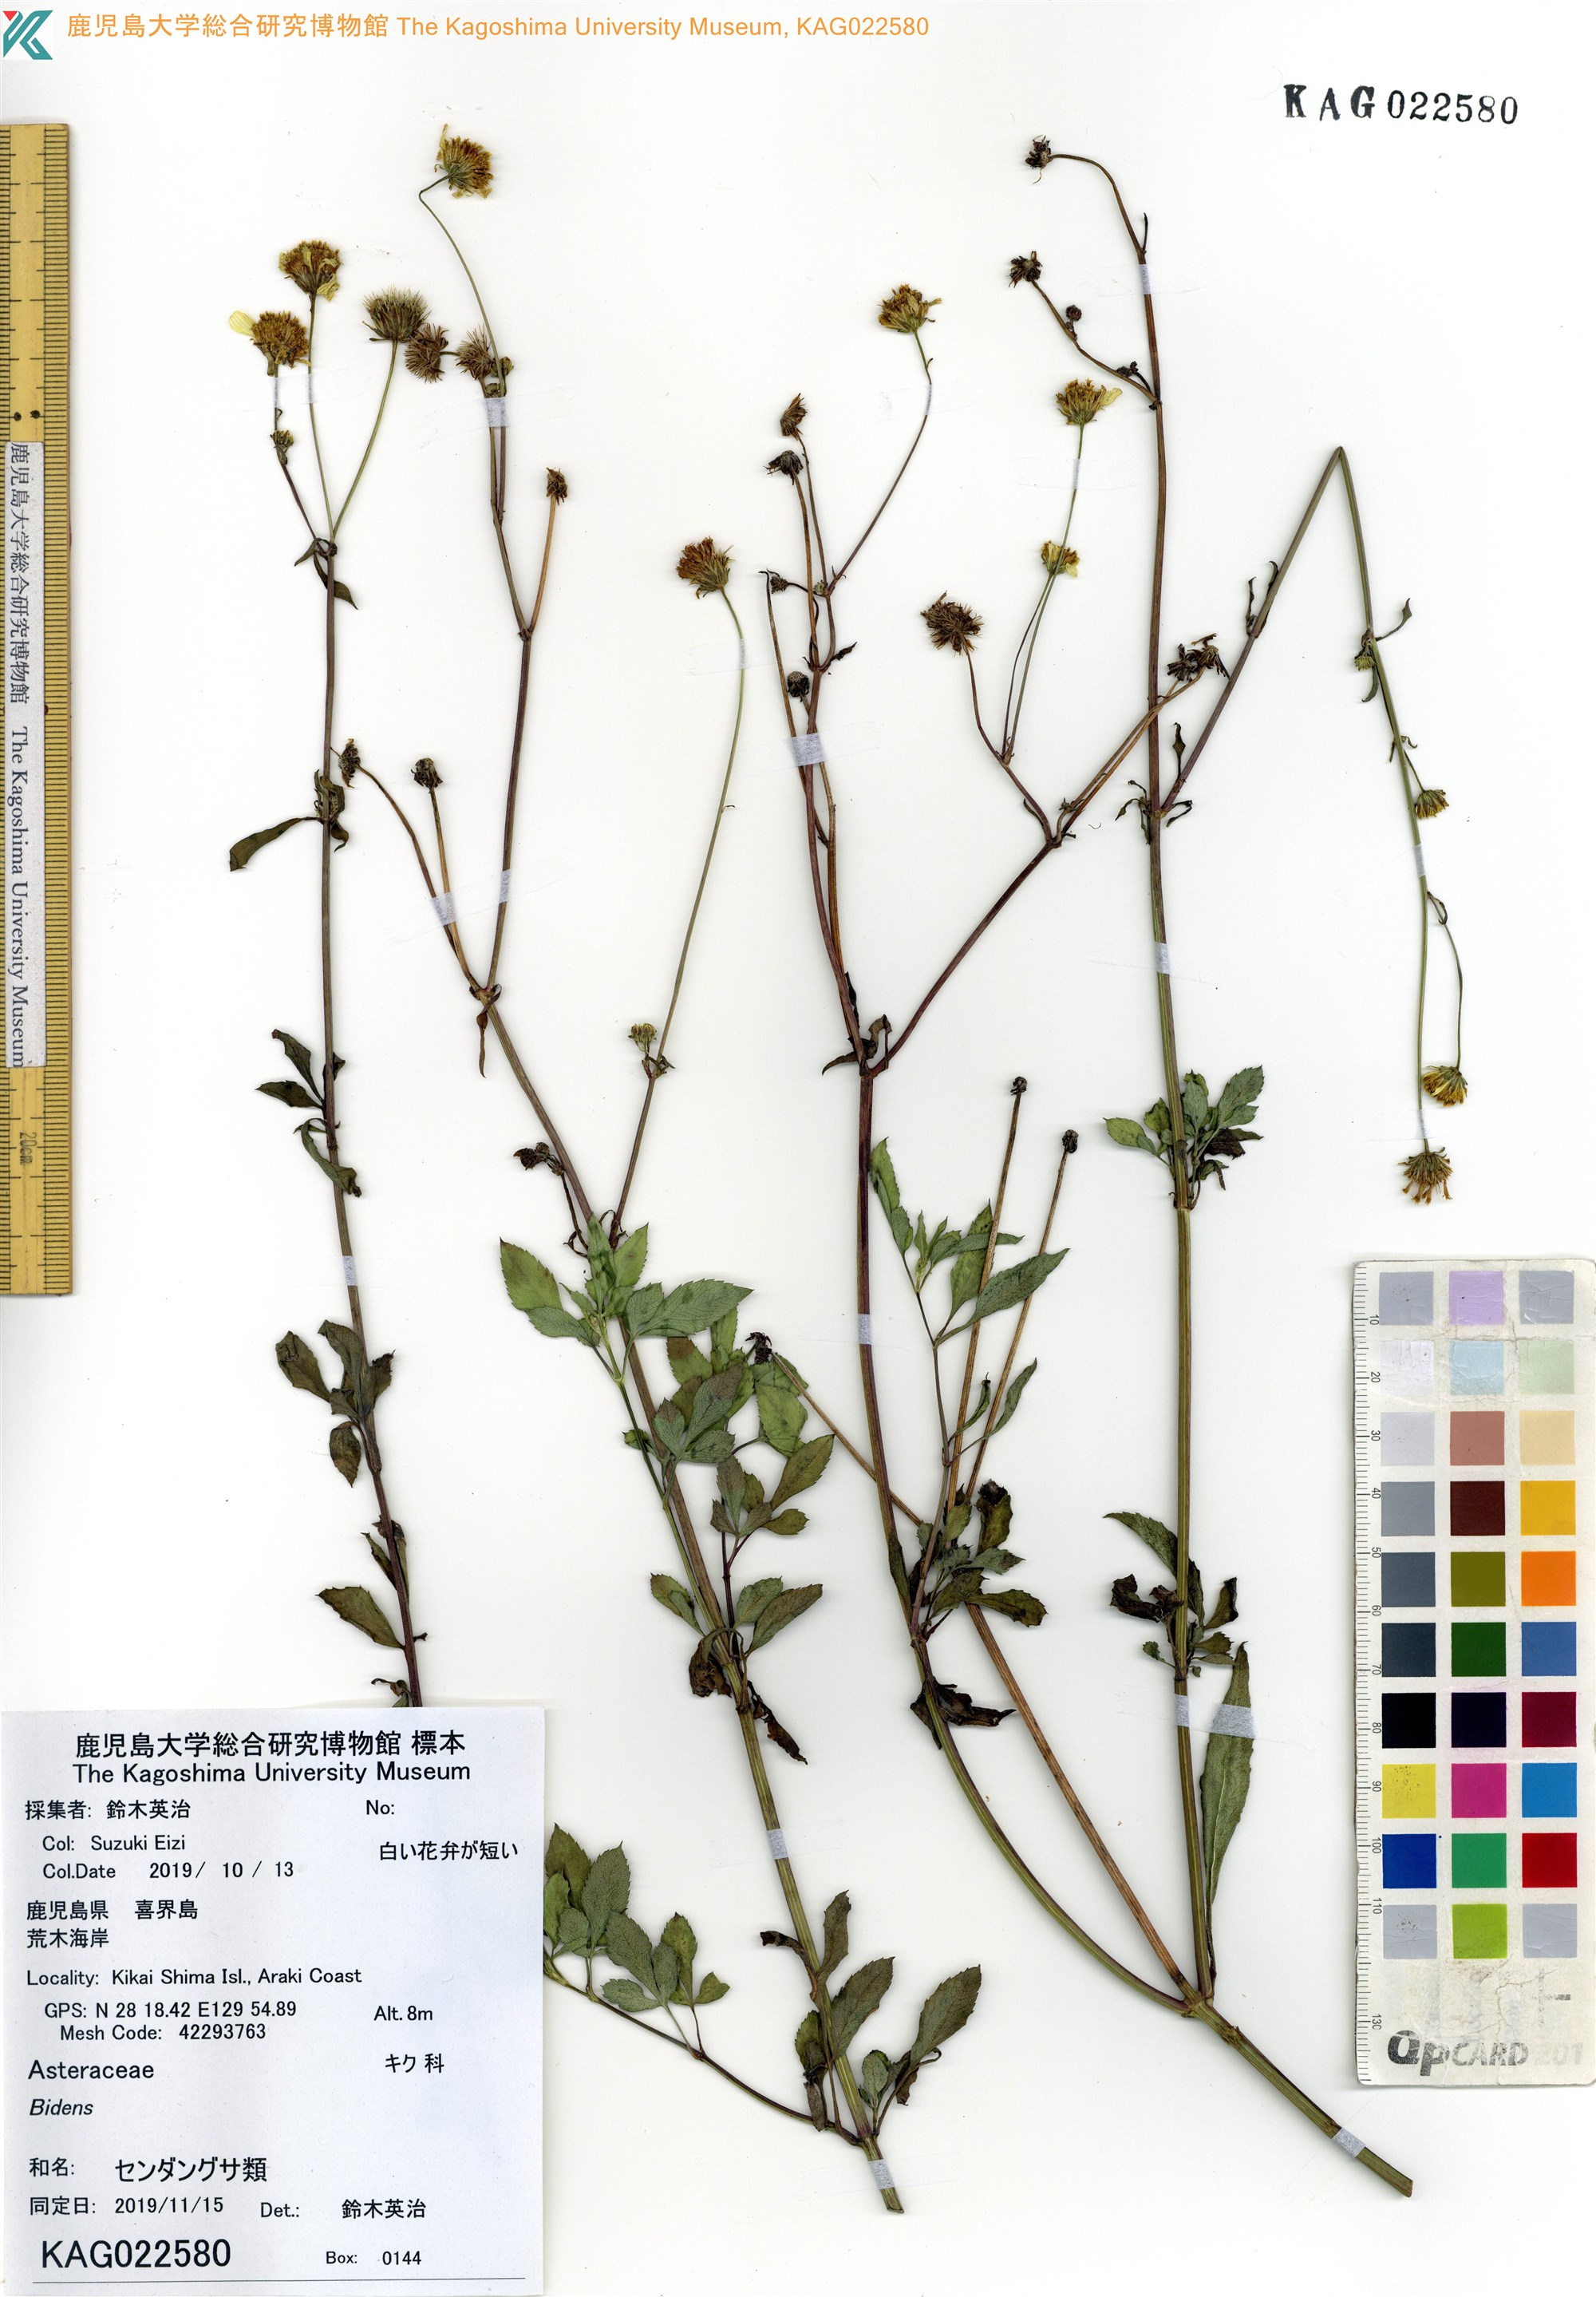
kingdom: Plantae
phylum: Tracheophyta
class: Magnoliopsida
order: Asterales
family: Asteraceae
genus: Bidens
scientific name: Bidens pilosa
